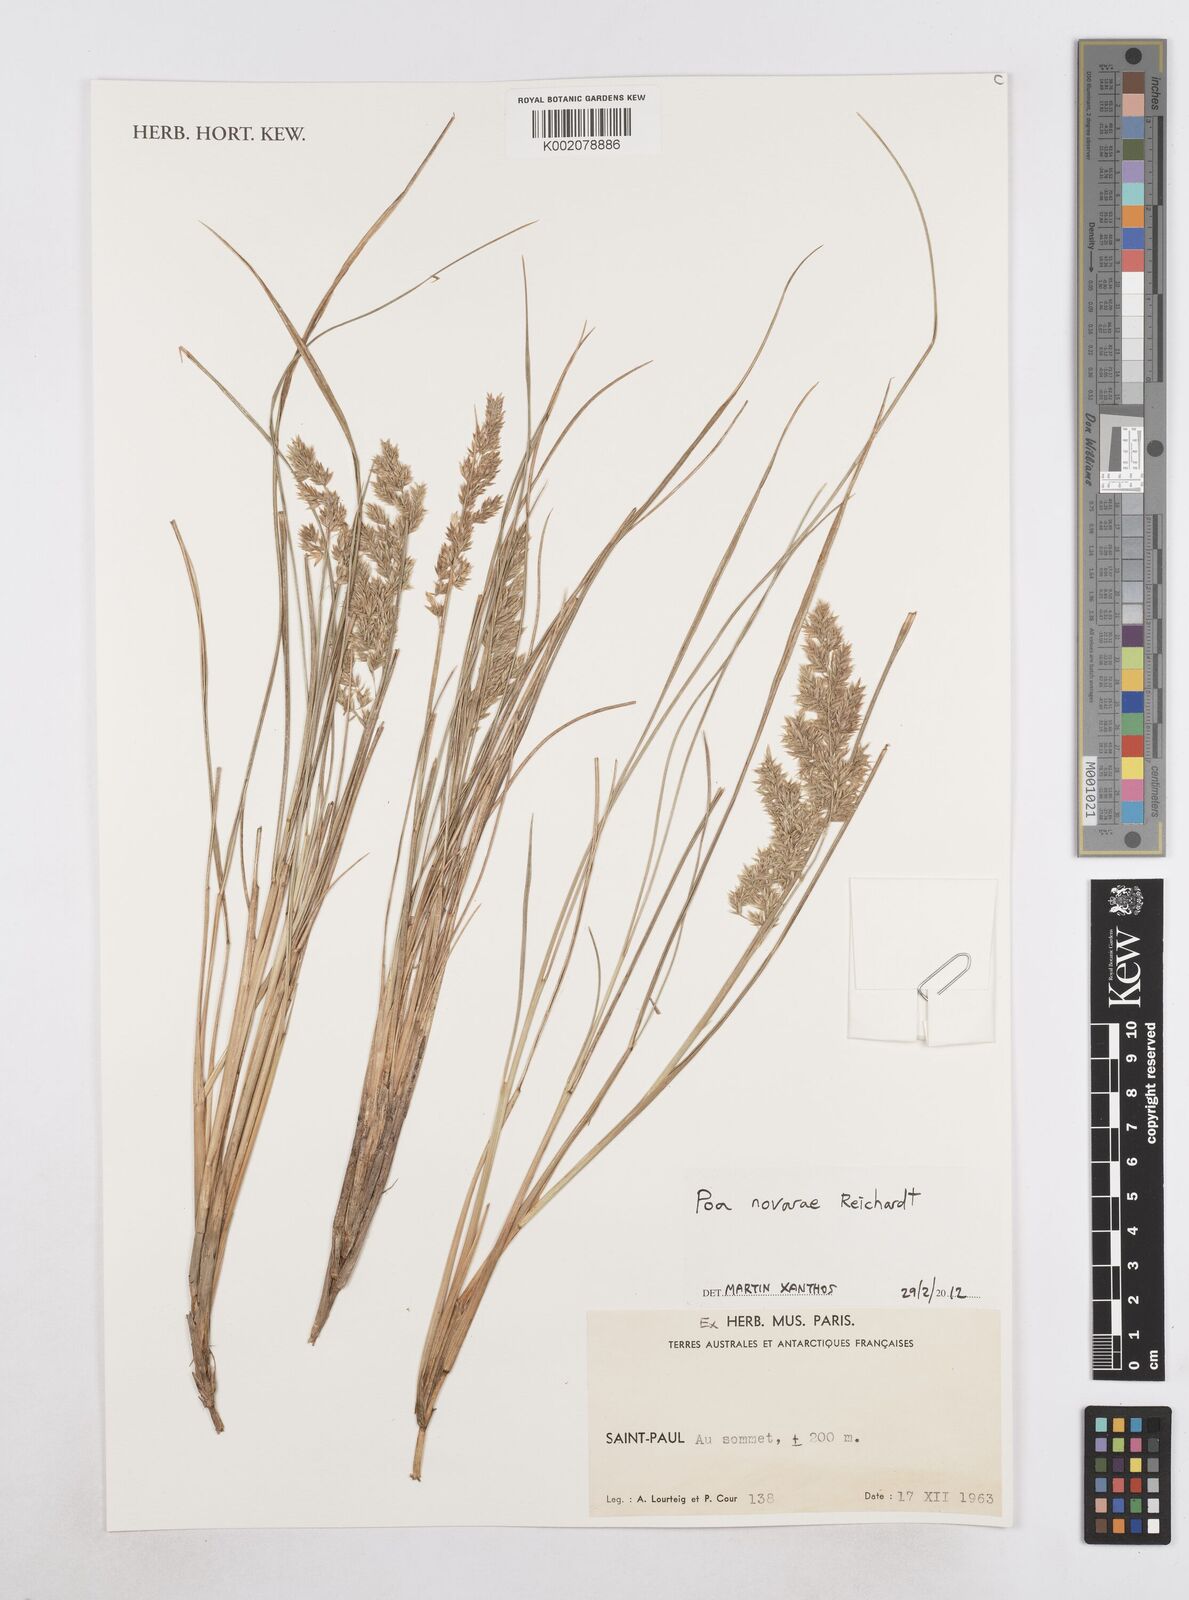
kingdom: Plantae
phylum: Tracheophyta
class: Liliopsida
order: Poales
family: Poaceae
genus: Poa
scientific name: Poa novarae
